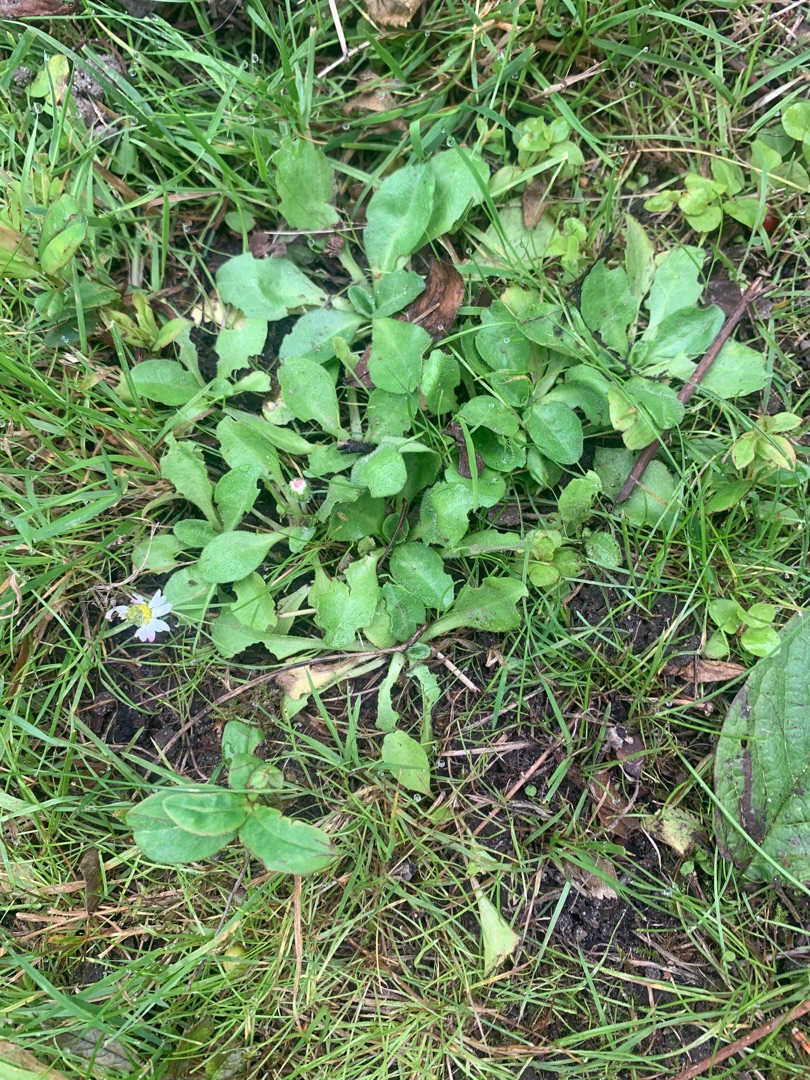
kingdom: Plantae
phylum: Tracheophyta
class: Magnoliopsida
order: Asterales
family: Asteraceae
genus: Bellis
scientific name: Bellis perennis
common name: Tusindfryd
